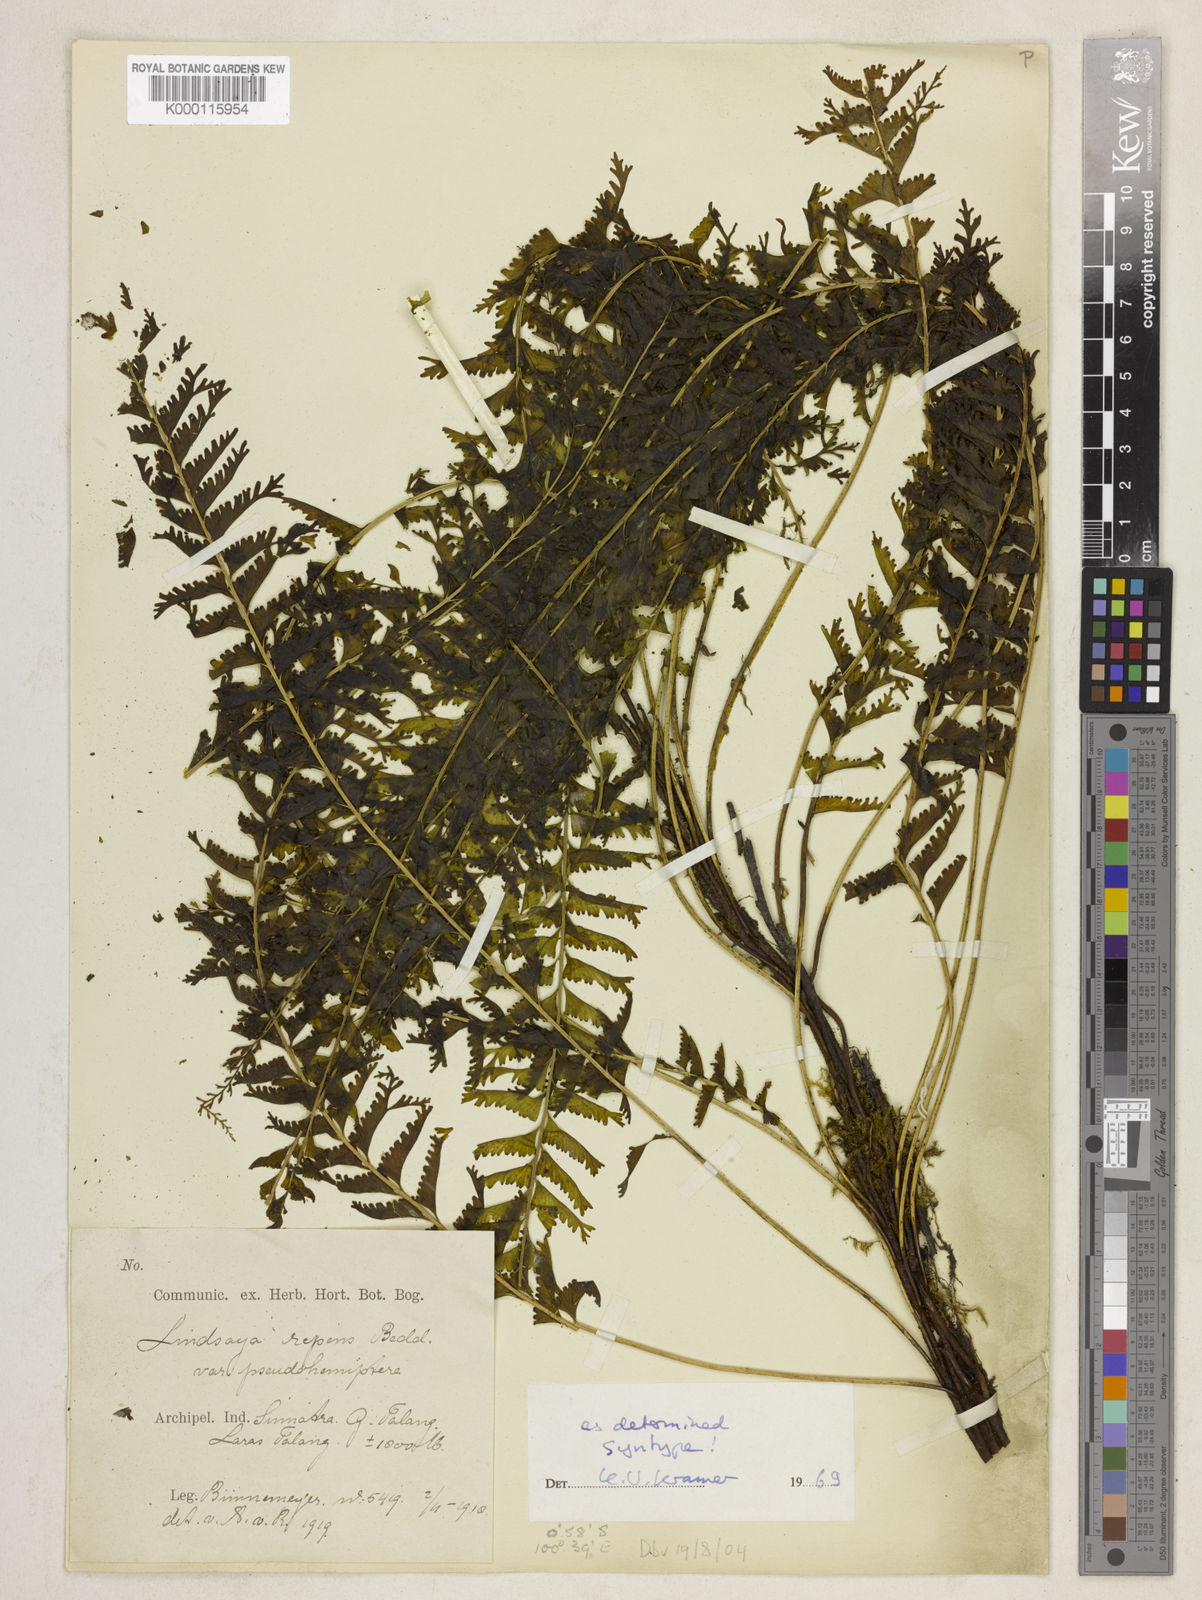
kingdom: Plantae
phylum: Tracheophyta
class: Polypodiopsida
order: Polypodiales
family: Lindsaeaceae
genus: Lindsaea
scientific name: Lindsaea pseudohemiptera
